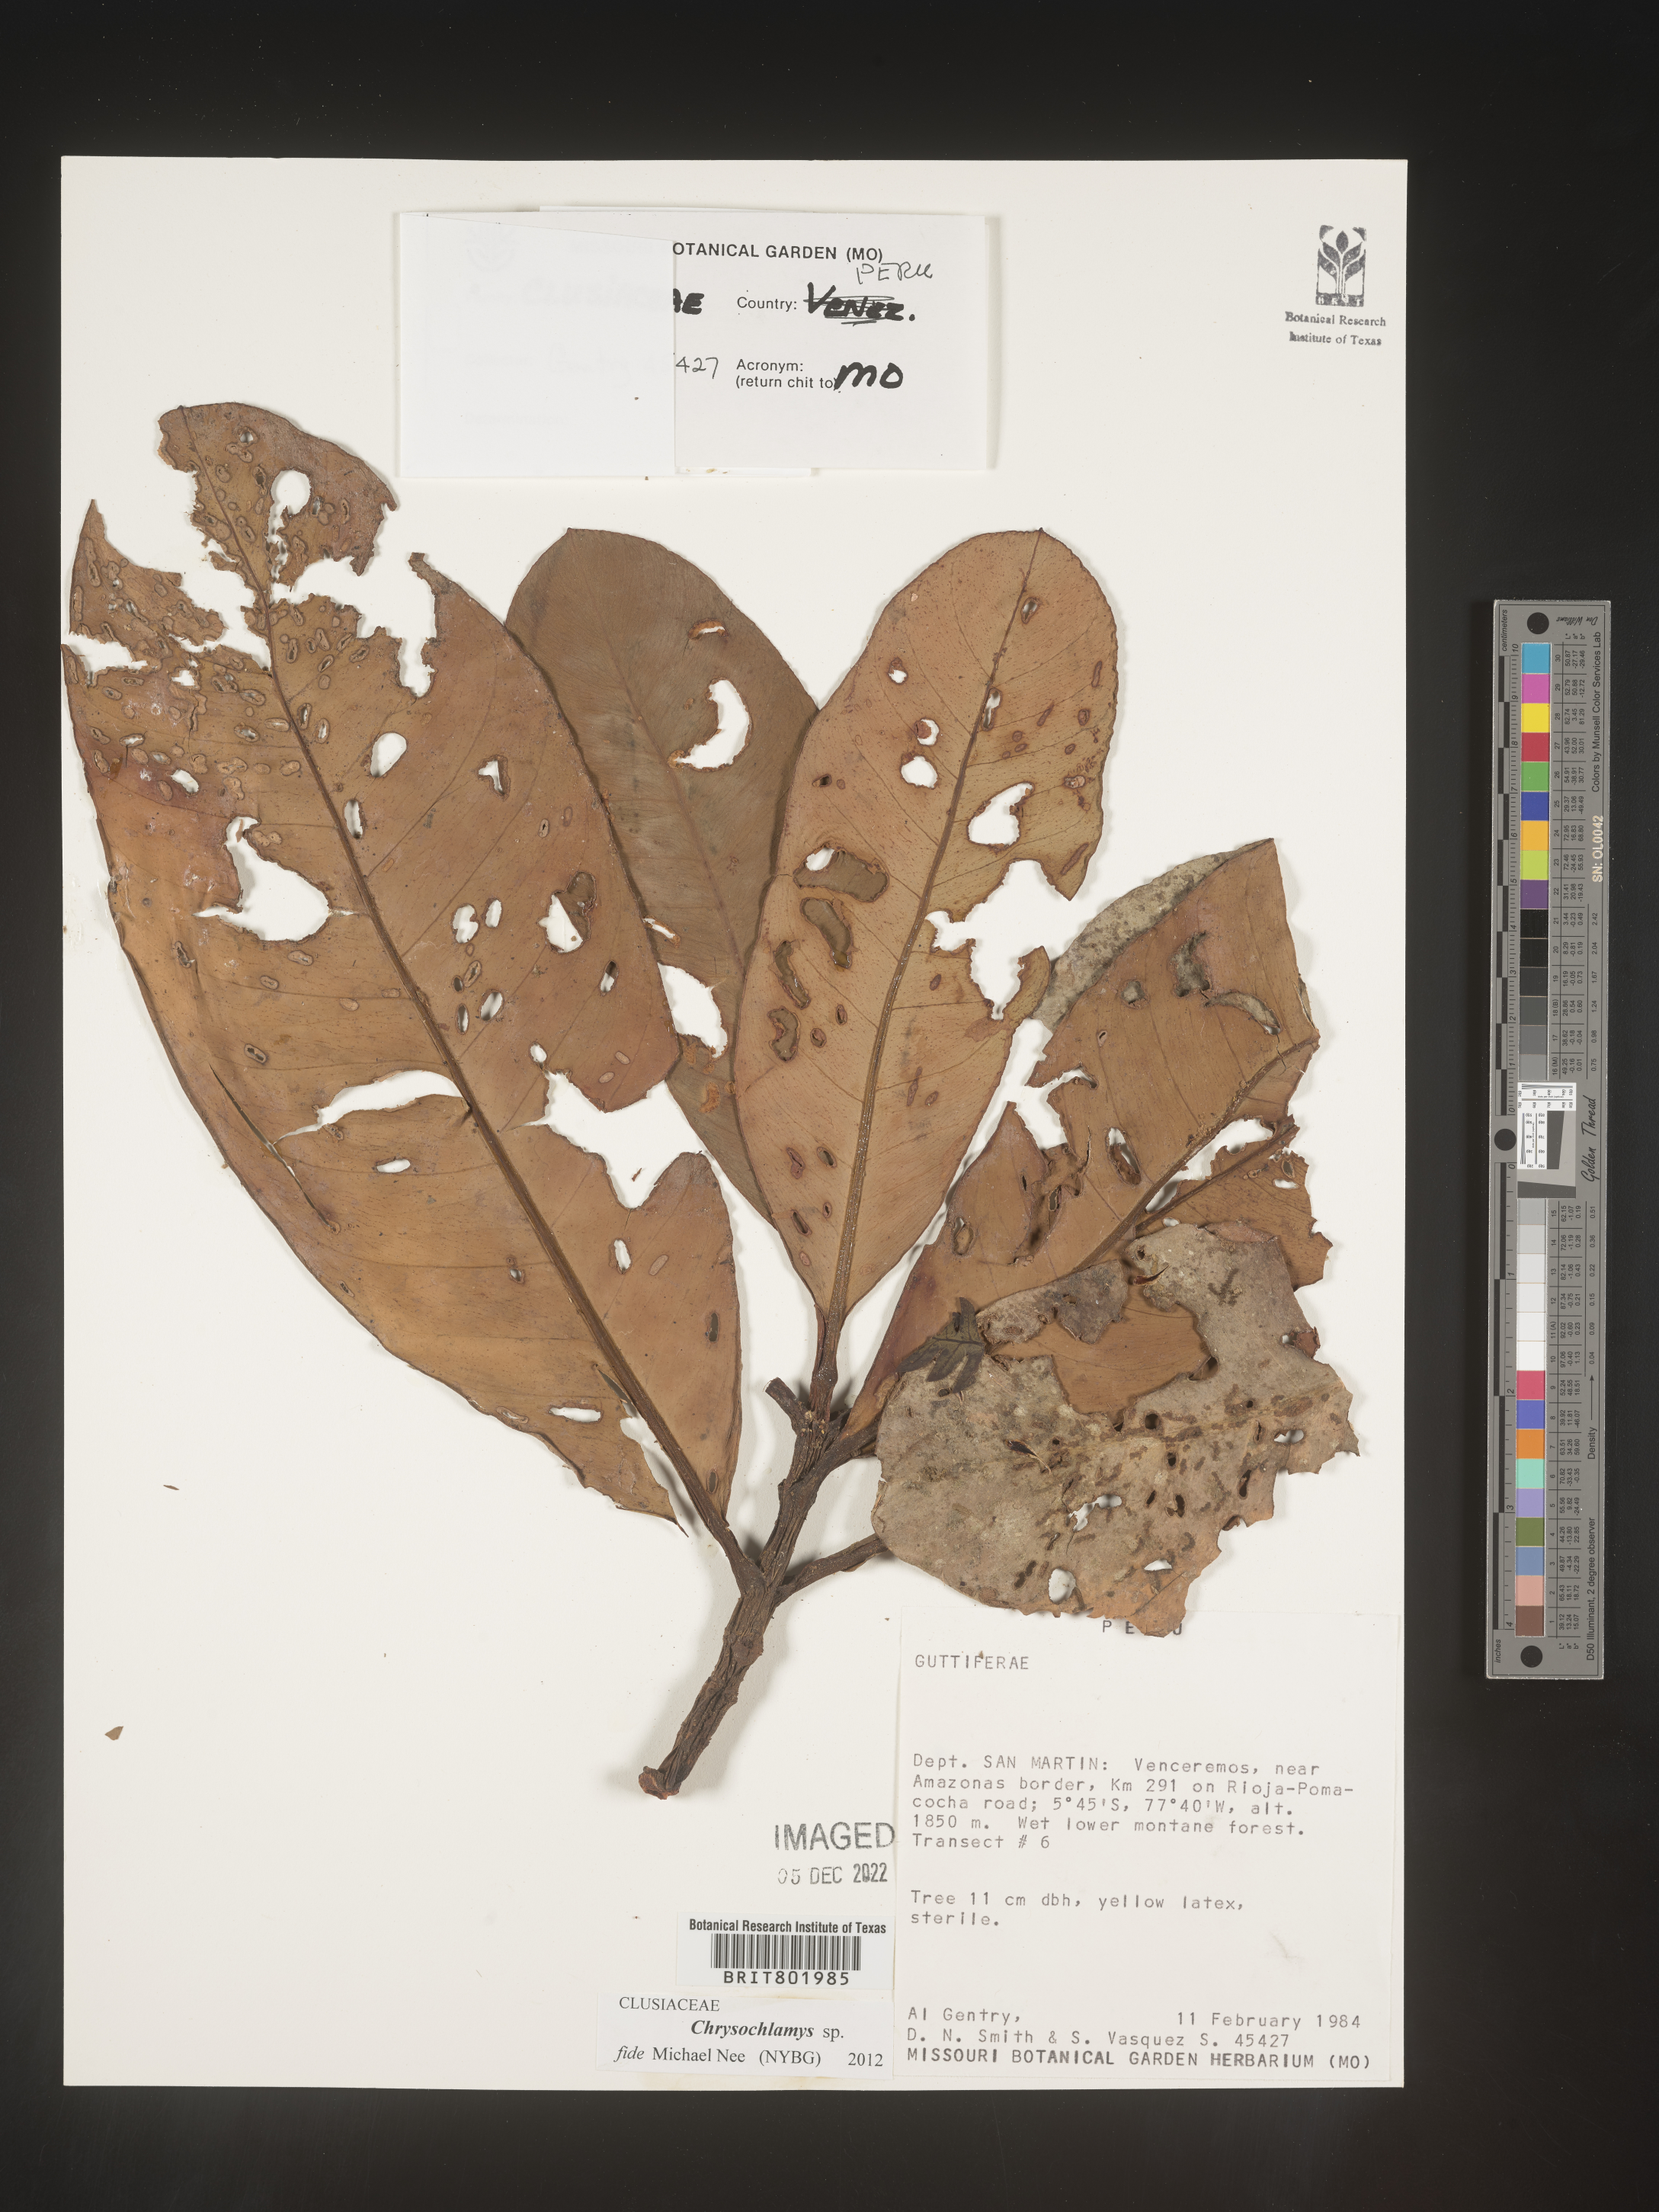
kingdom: Plantae
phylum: Tracheophyta
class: Magnoliopsida
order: Malpighiales
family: Clusiaceae
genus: Chrysochlamys
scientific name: Chrysochlamys
